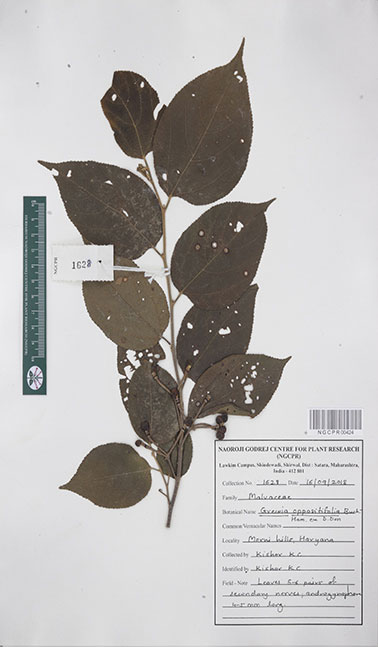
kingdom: Plantae
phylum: Tracheophyta
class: Magnoliopsida
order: Malvales
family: Malvaceae
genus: Grewia
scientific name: Grewia oppositifolia
